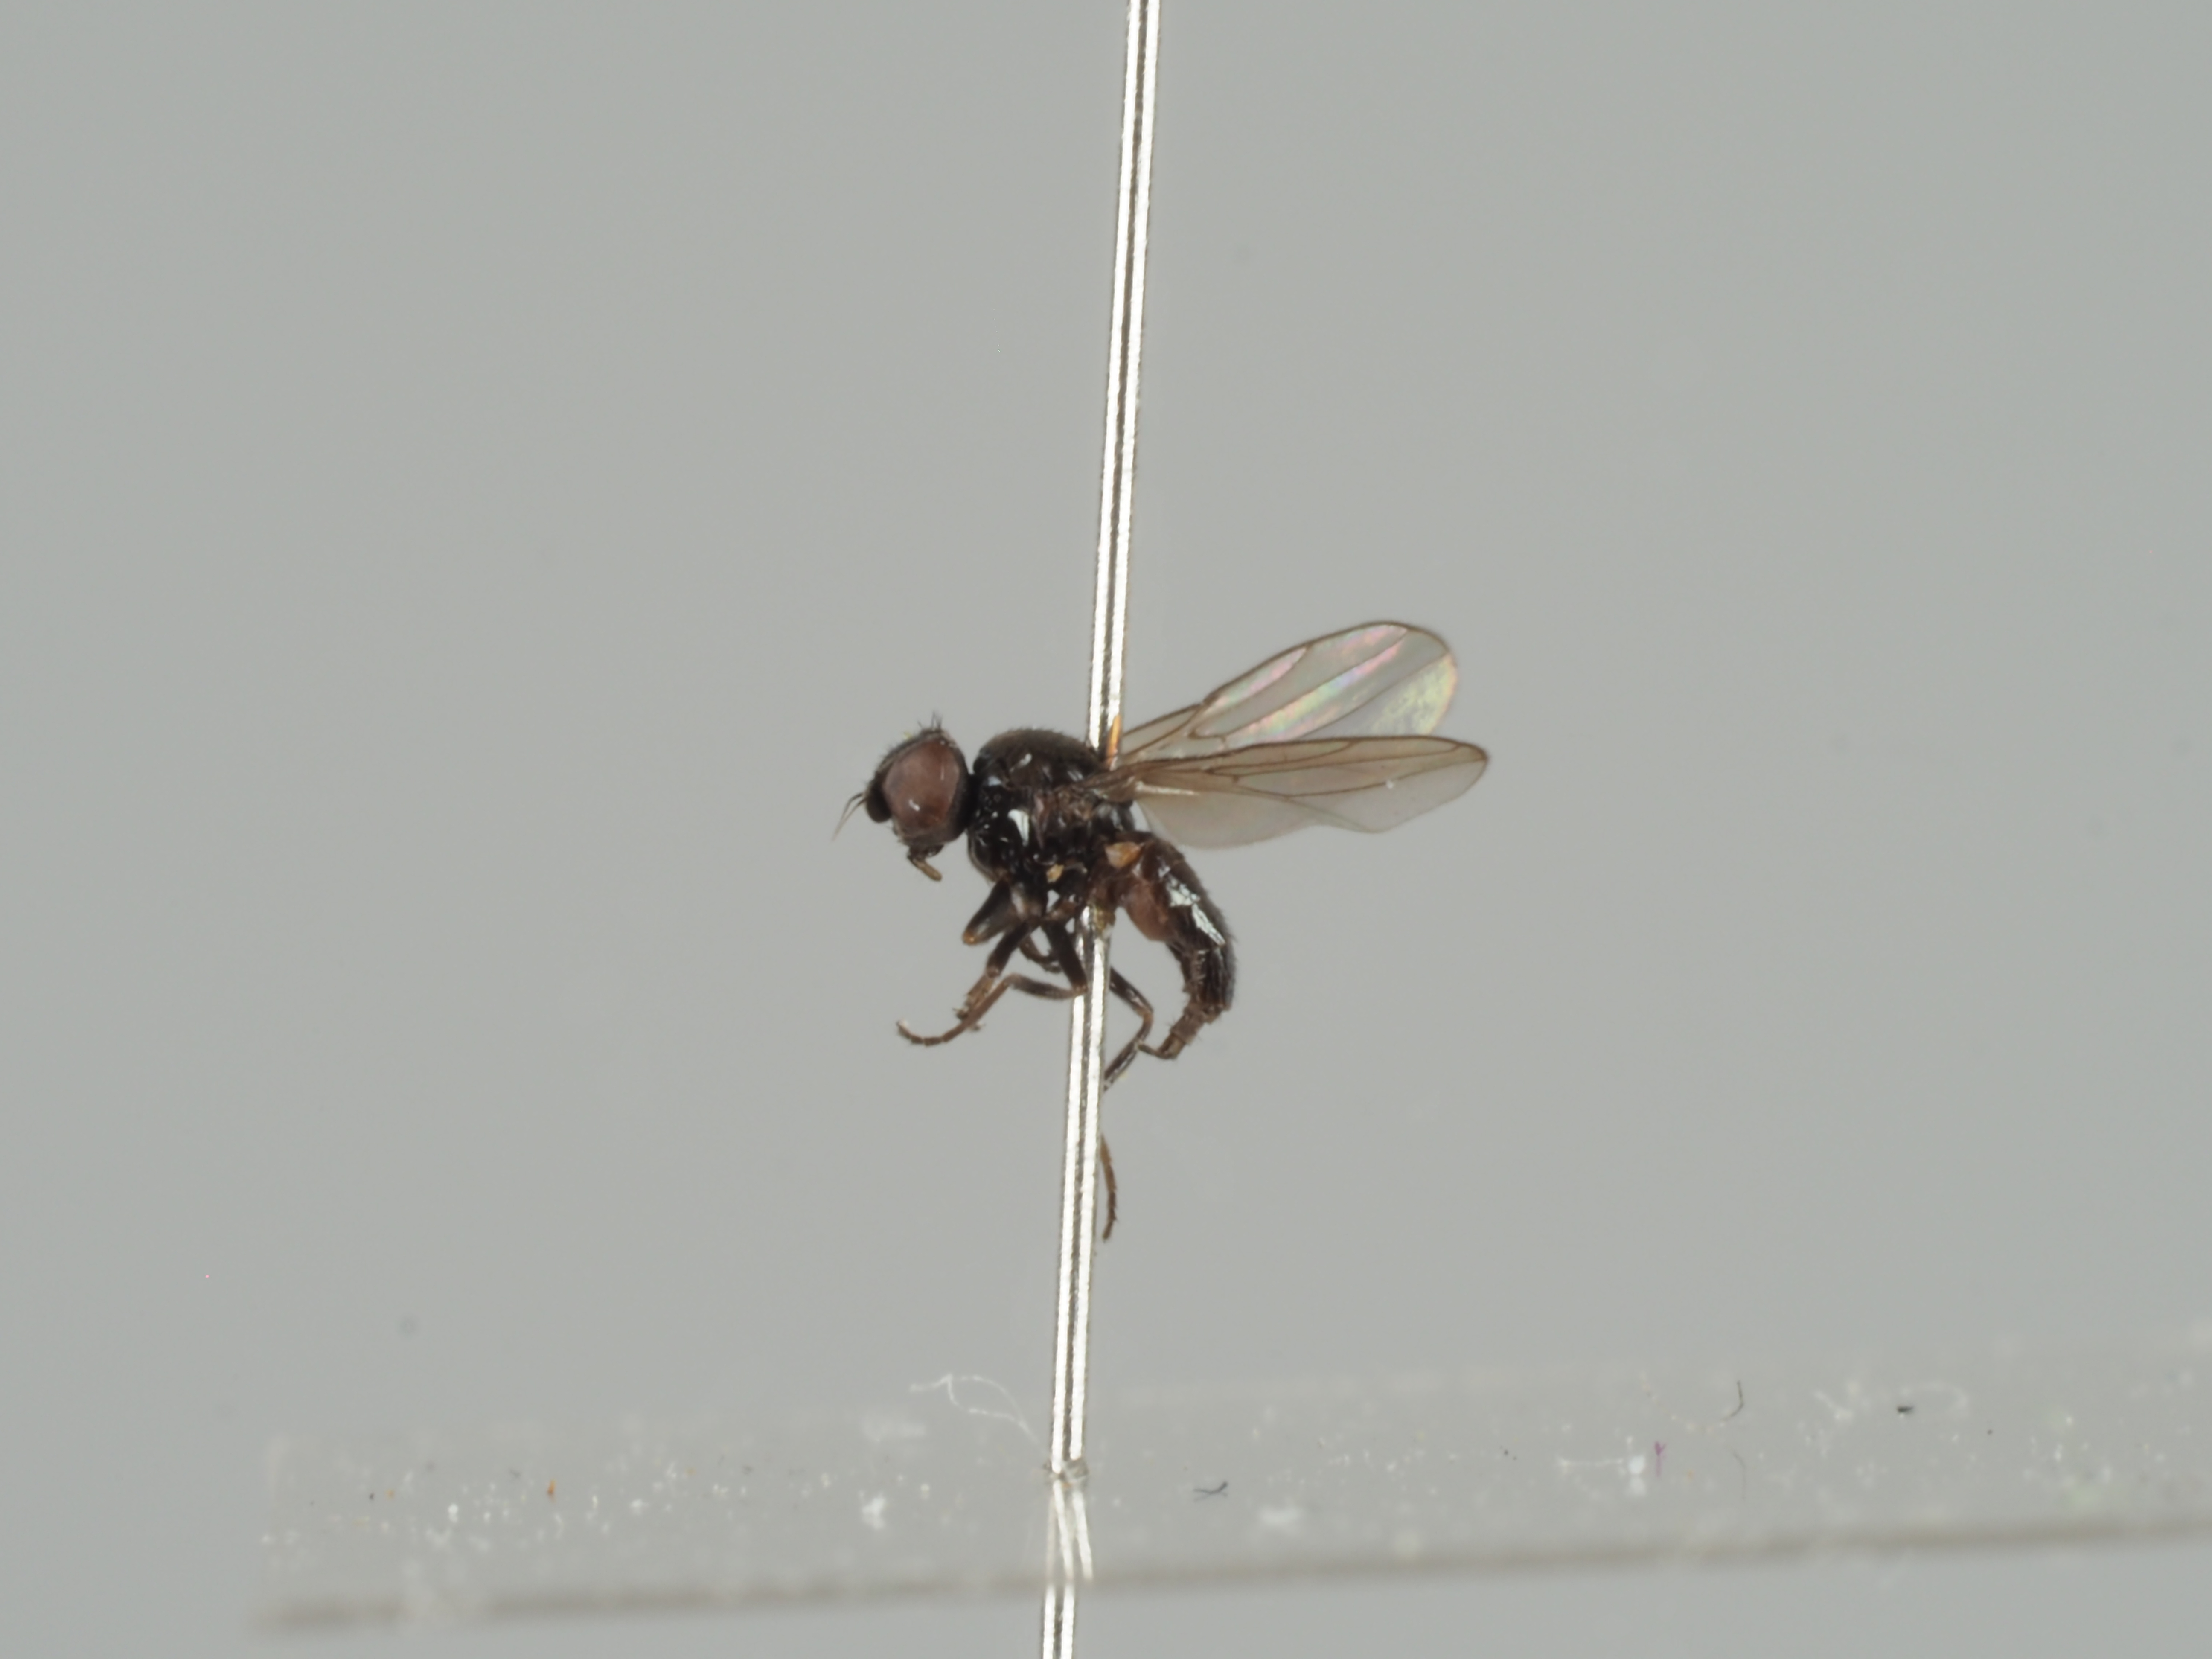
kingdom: Animalia
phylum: Arthropoda
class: Insecta
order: Diptera
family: Chloropidae
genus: Oscinella
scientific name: Oscinella nigertrima
